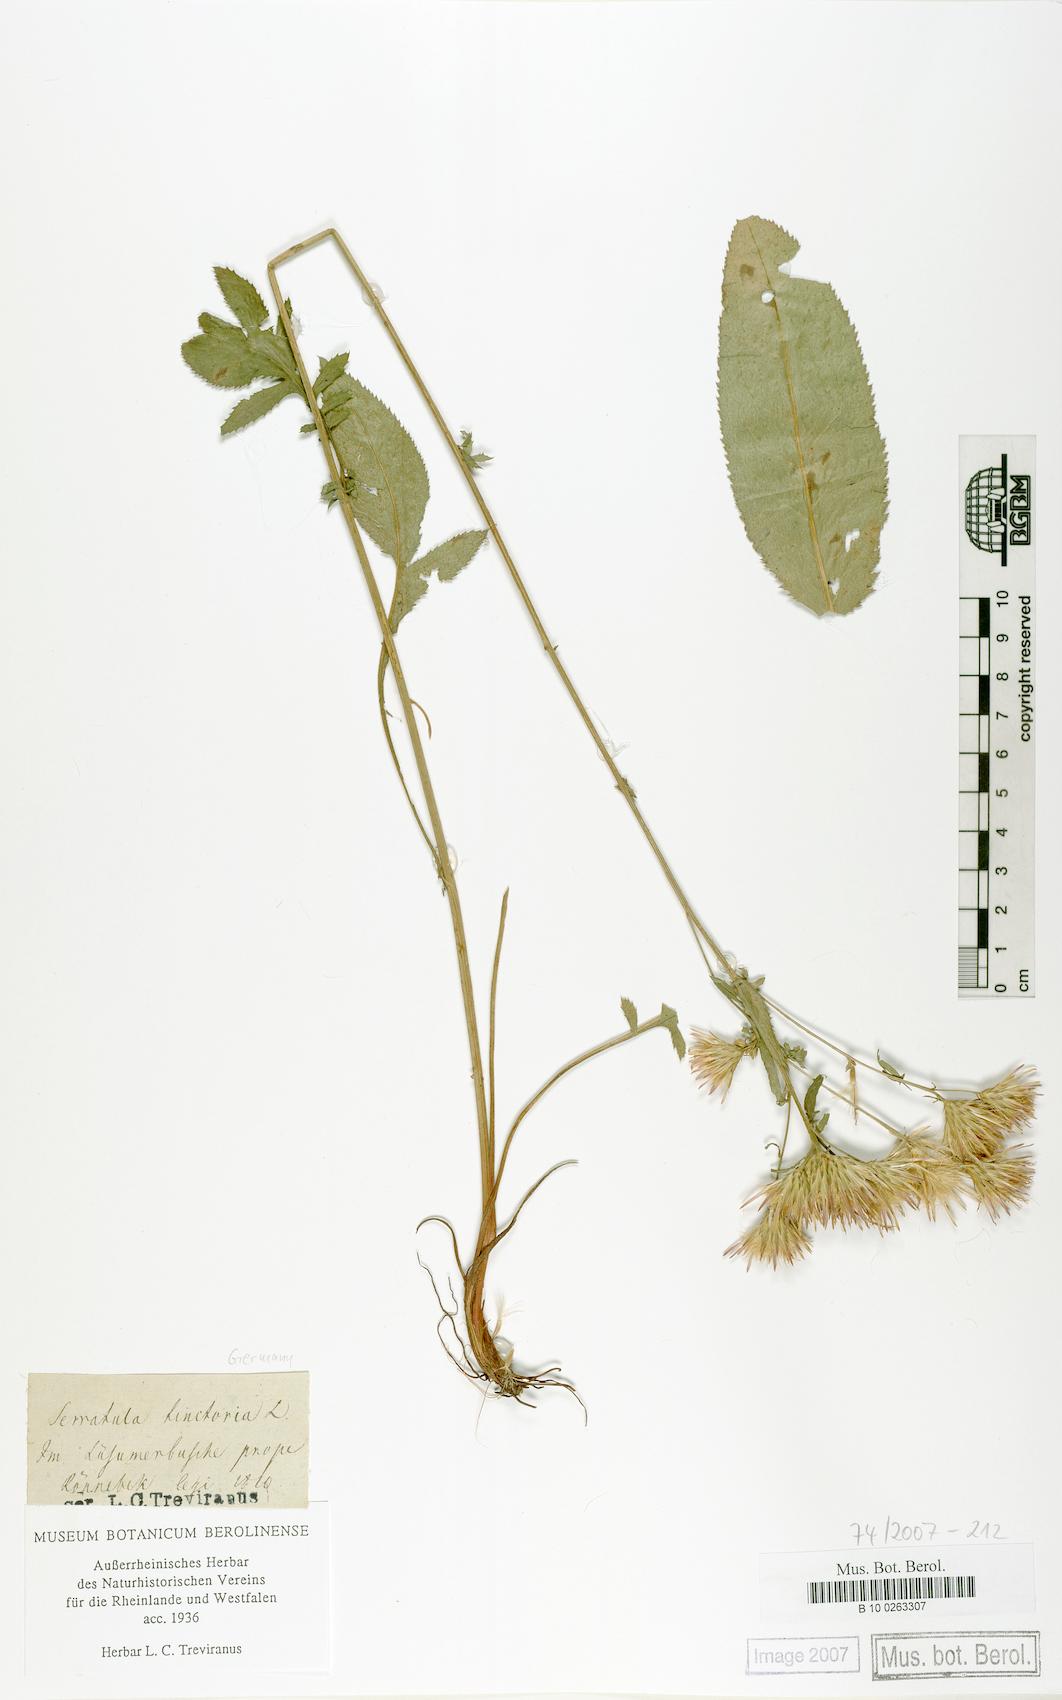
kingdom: Plantae
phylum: Tracheophyta
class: Magnoliopsida
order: Asterales
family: Asteraceae
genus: Serratula
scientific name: Serratula tinctoria
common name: Saw-wort
